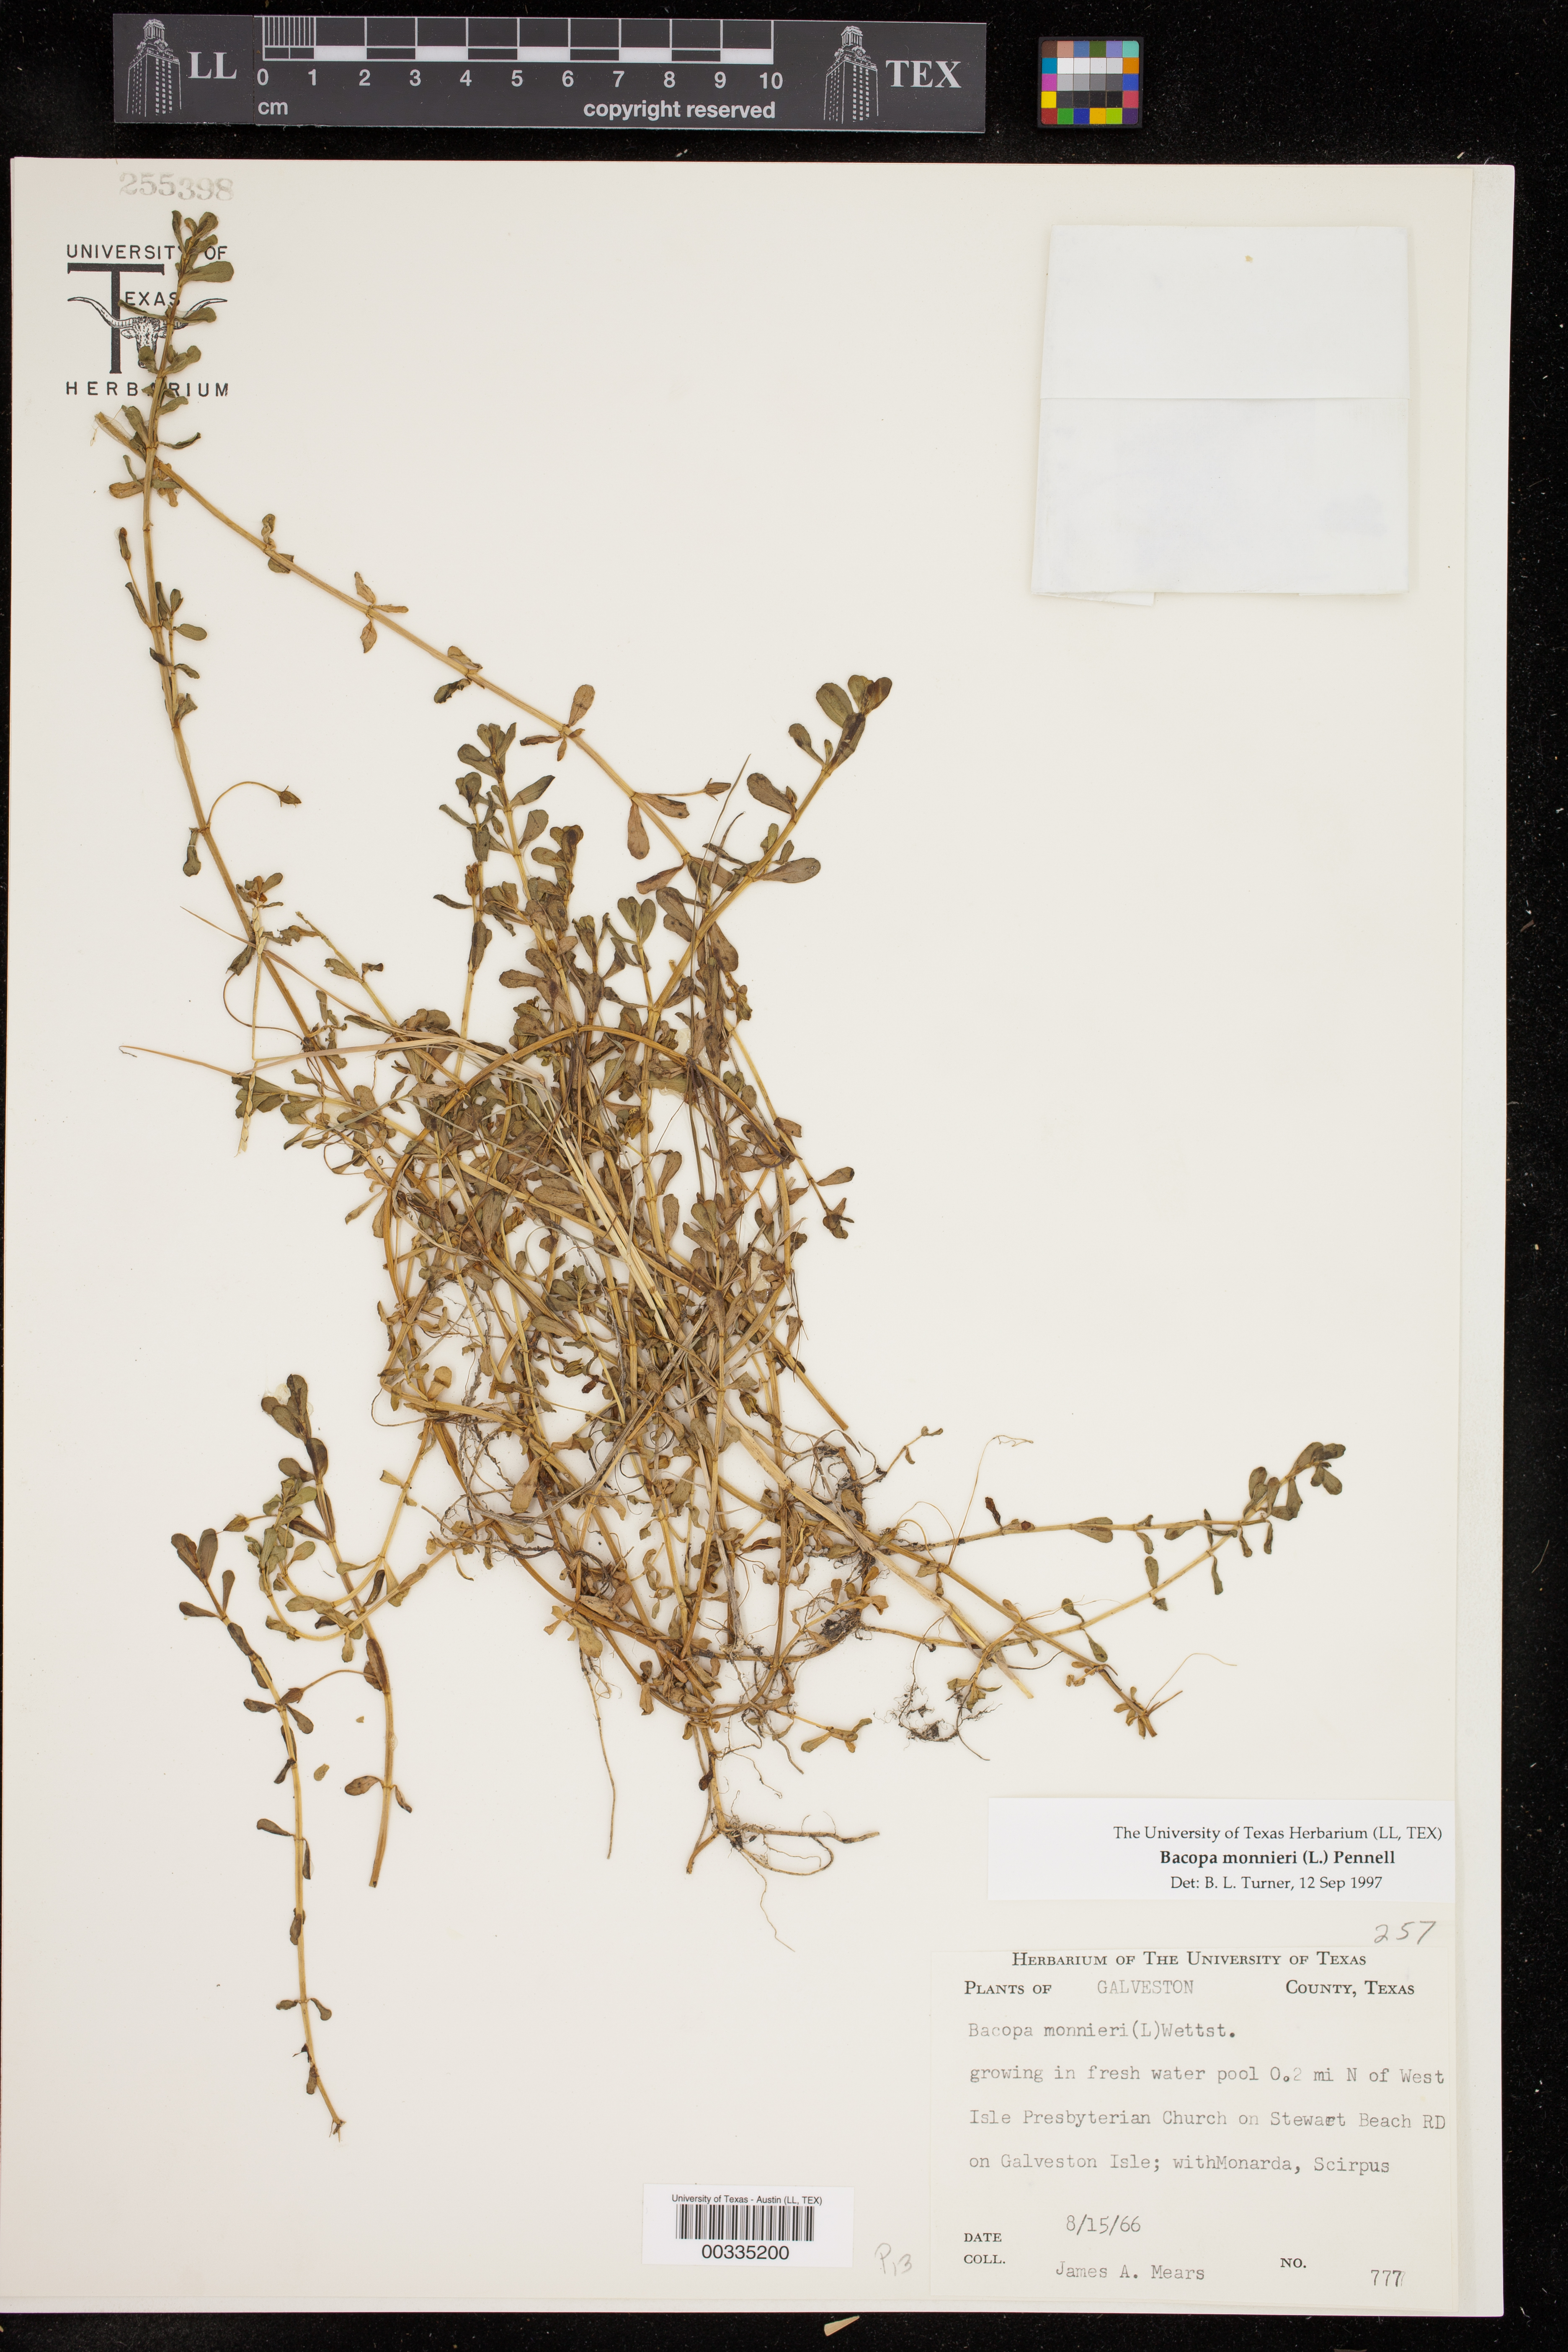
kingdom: Plantae
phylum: Tracheophyta
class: Magnoliopsida
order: Lamiales
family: Plantaginaceae
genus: Bacopa
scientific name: Bacopa monnieri
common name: Indian-pennywort
